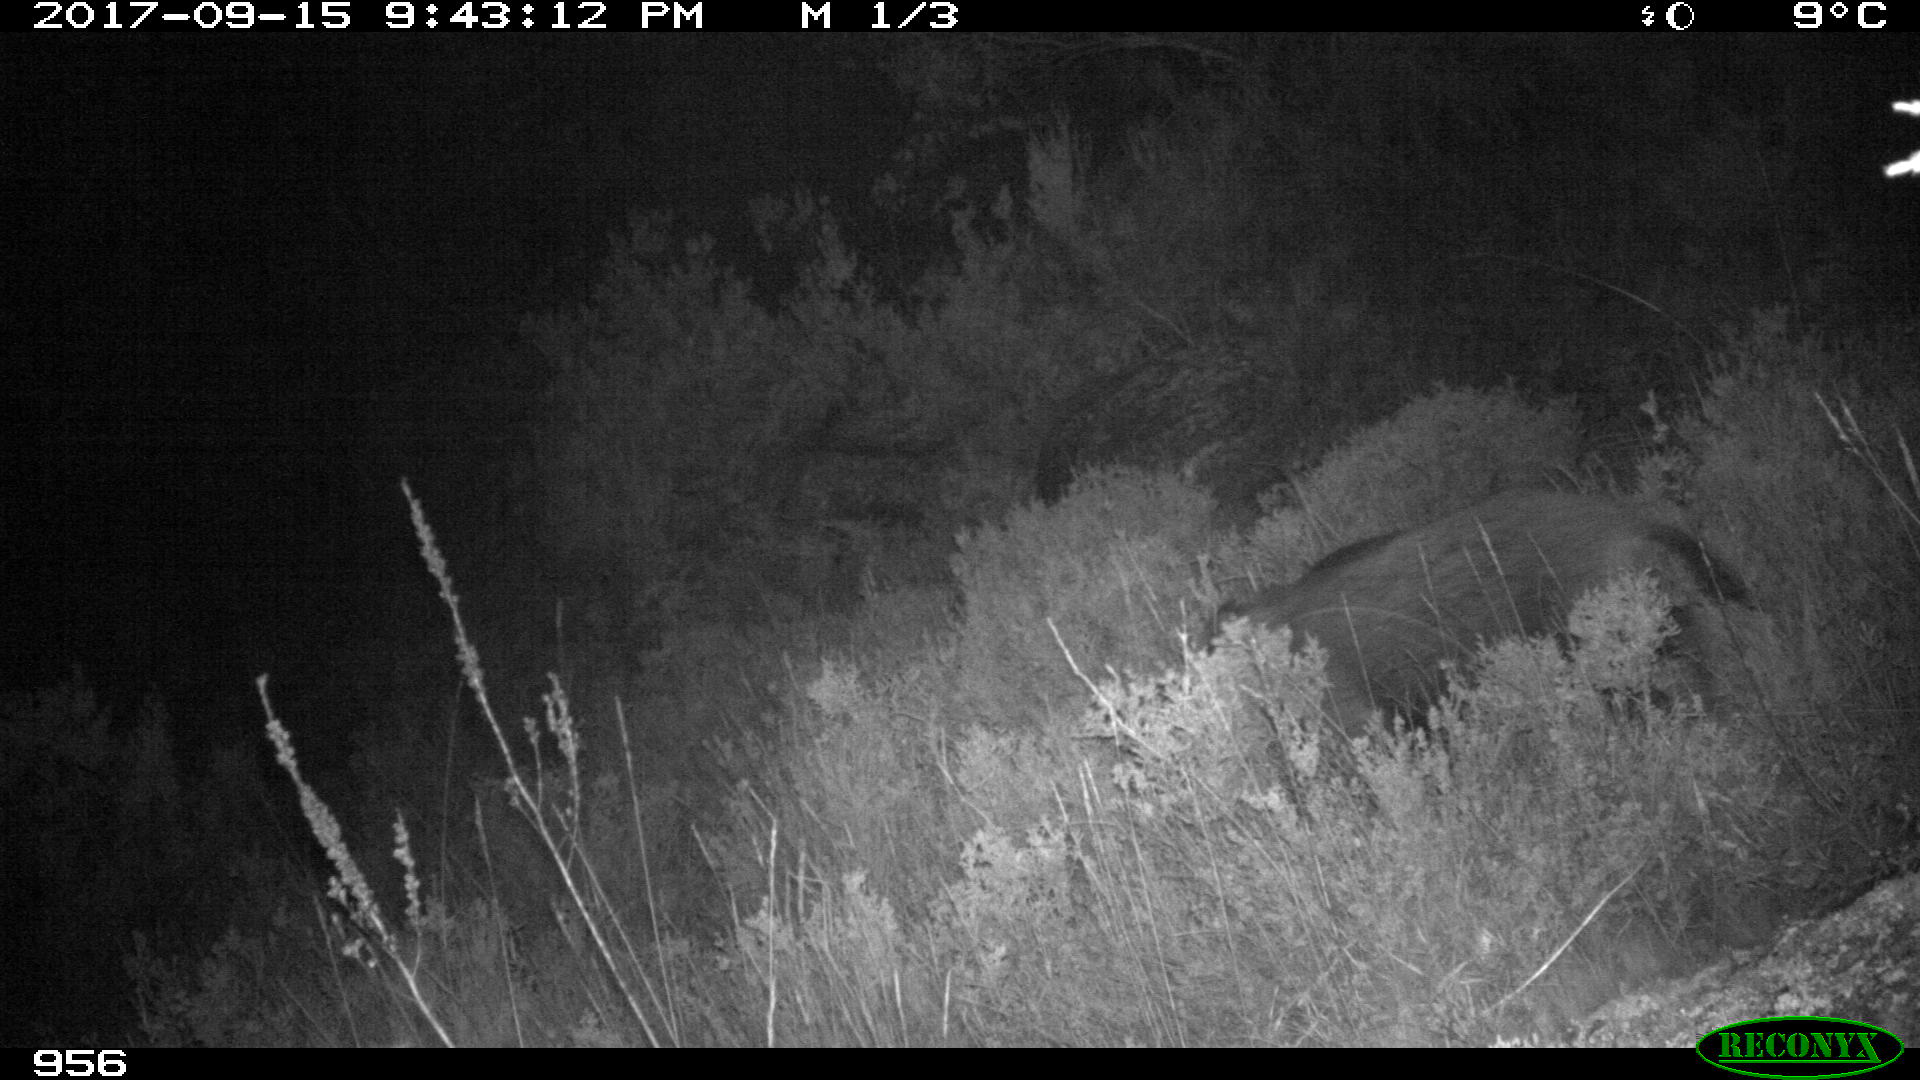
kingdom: Animalia
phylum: Chordata
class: Mammalia
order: Artiodactyla
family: Suidae
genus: Sus
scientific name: Sus scrofa
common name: Wild boar
